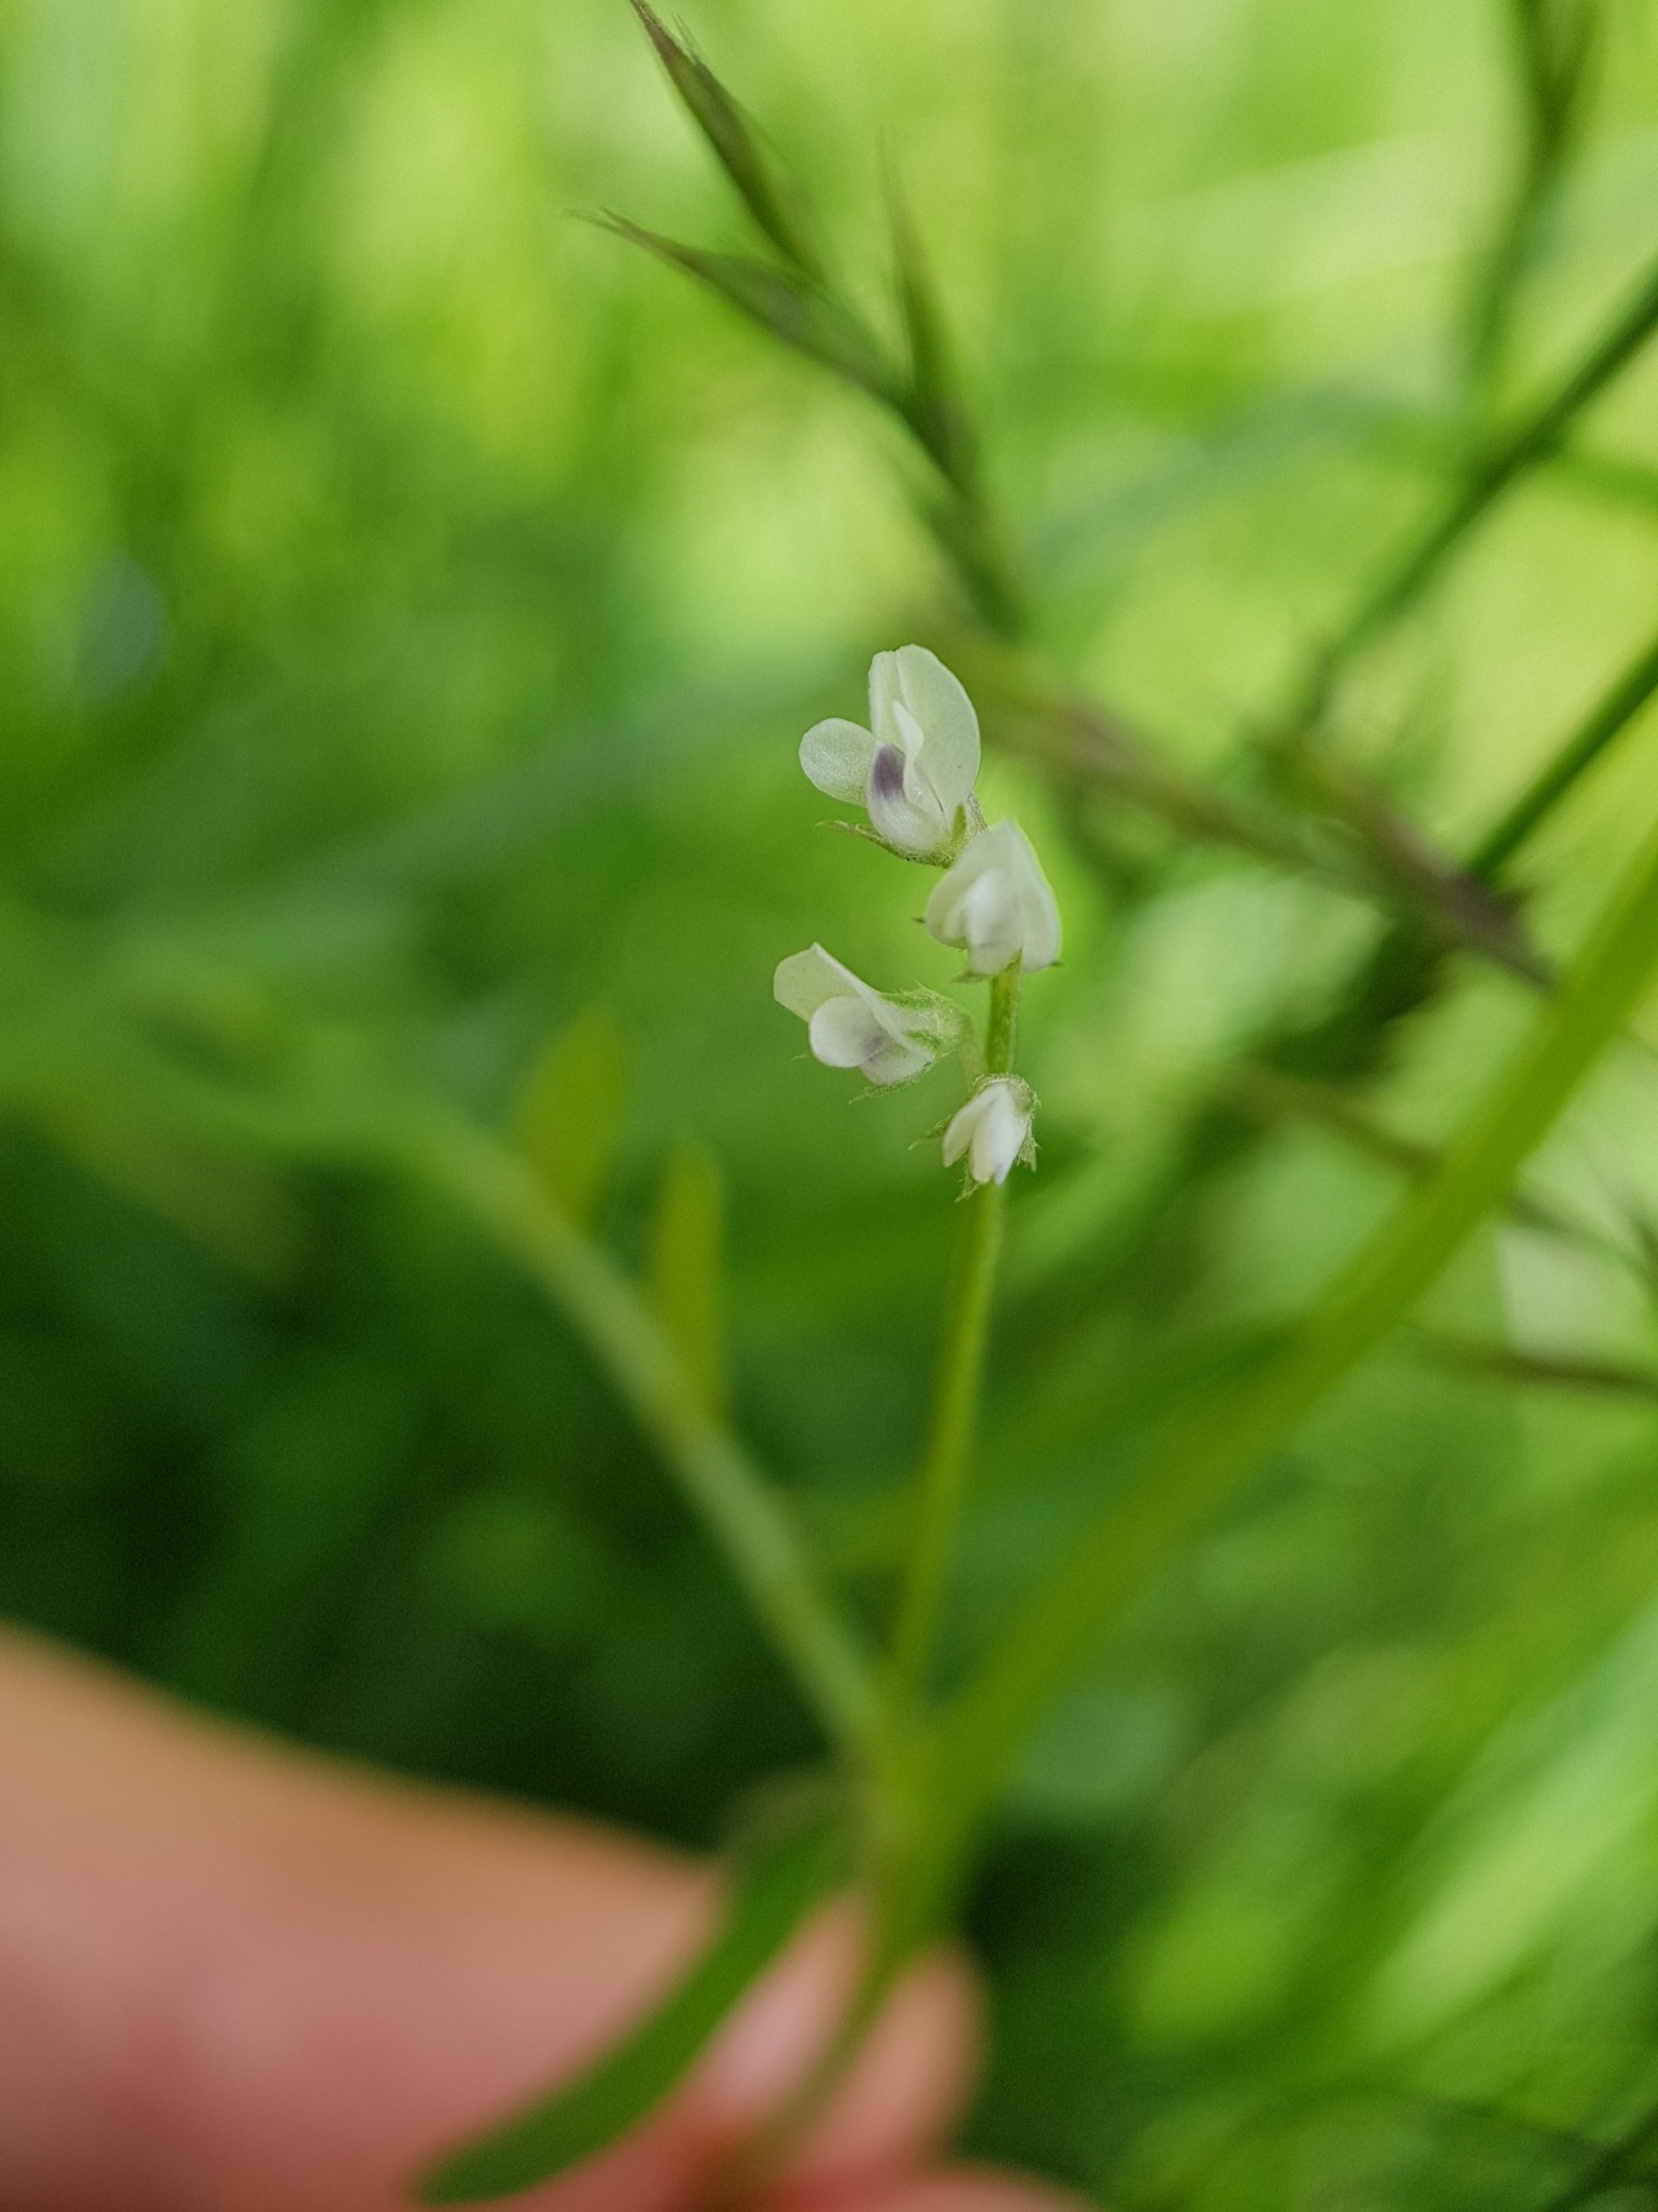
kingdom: Plantae
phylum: Tracheophyta
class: Magnoliopsida
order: Fabales
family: Fabaceae
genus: Vicia
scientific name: Vicia hirsuta
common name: Tofrøet vikke
